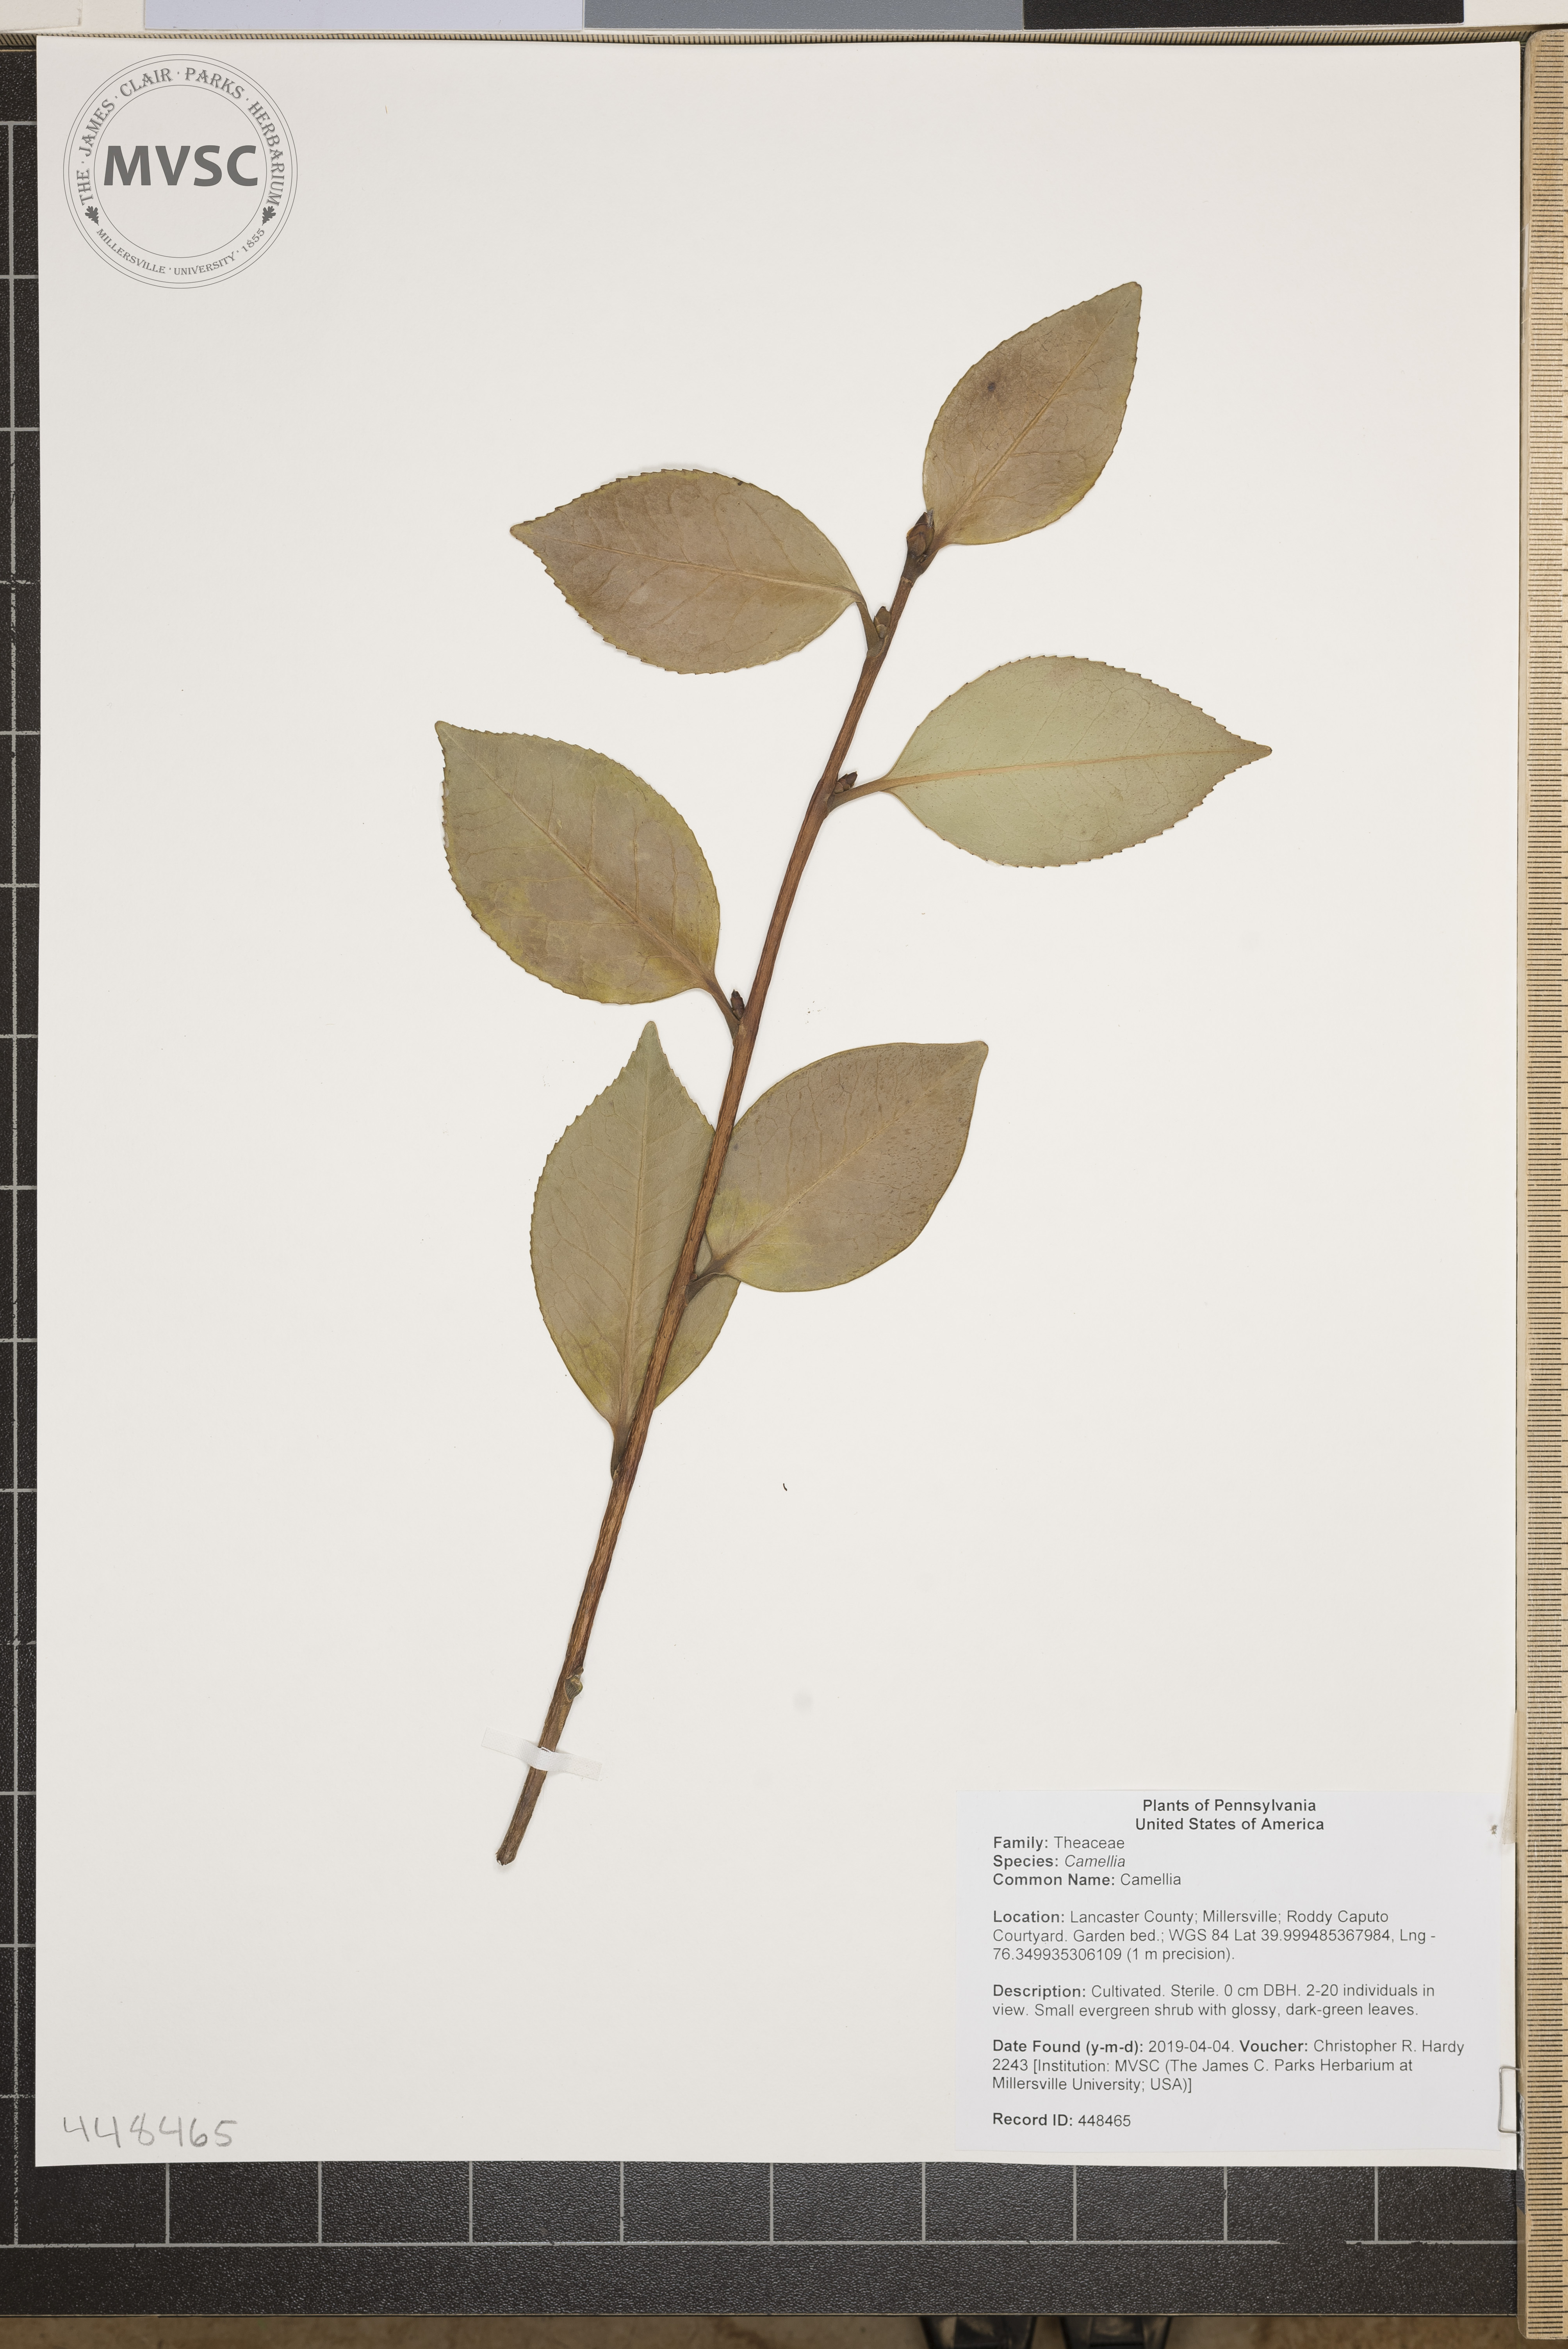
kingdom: Plantae
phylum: Tracheophyta
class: Magnoliopsida
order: Ericales
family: Theaceae
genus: Camellia
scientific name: Camellia
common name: Camellia
